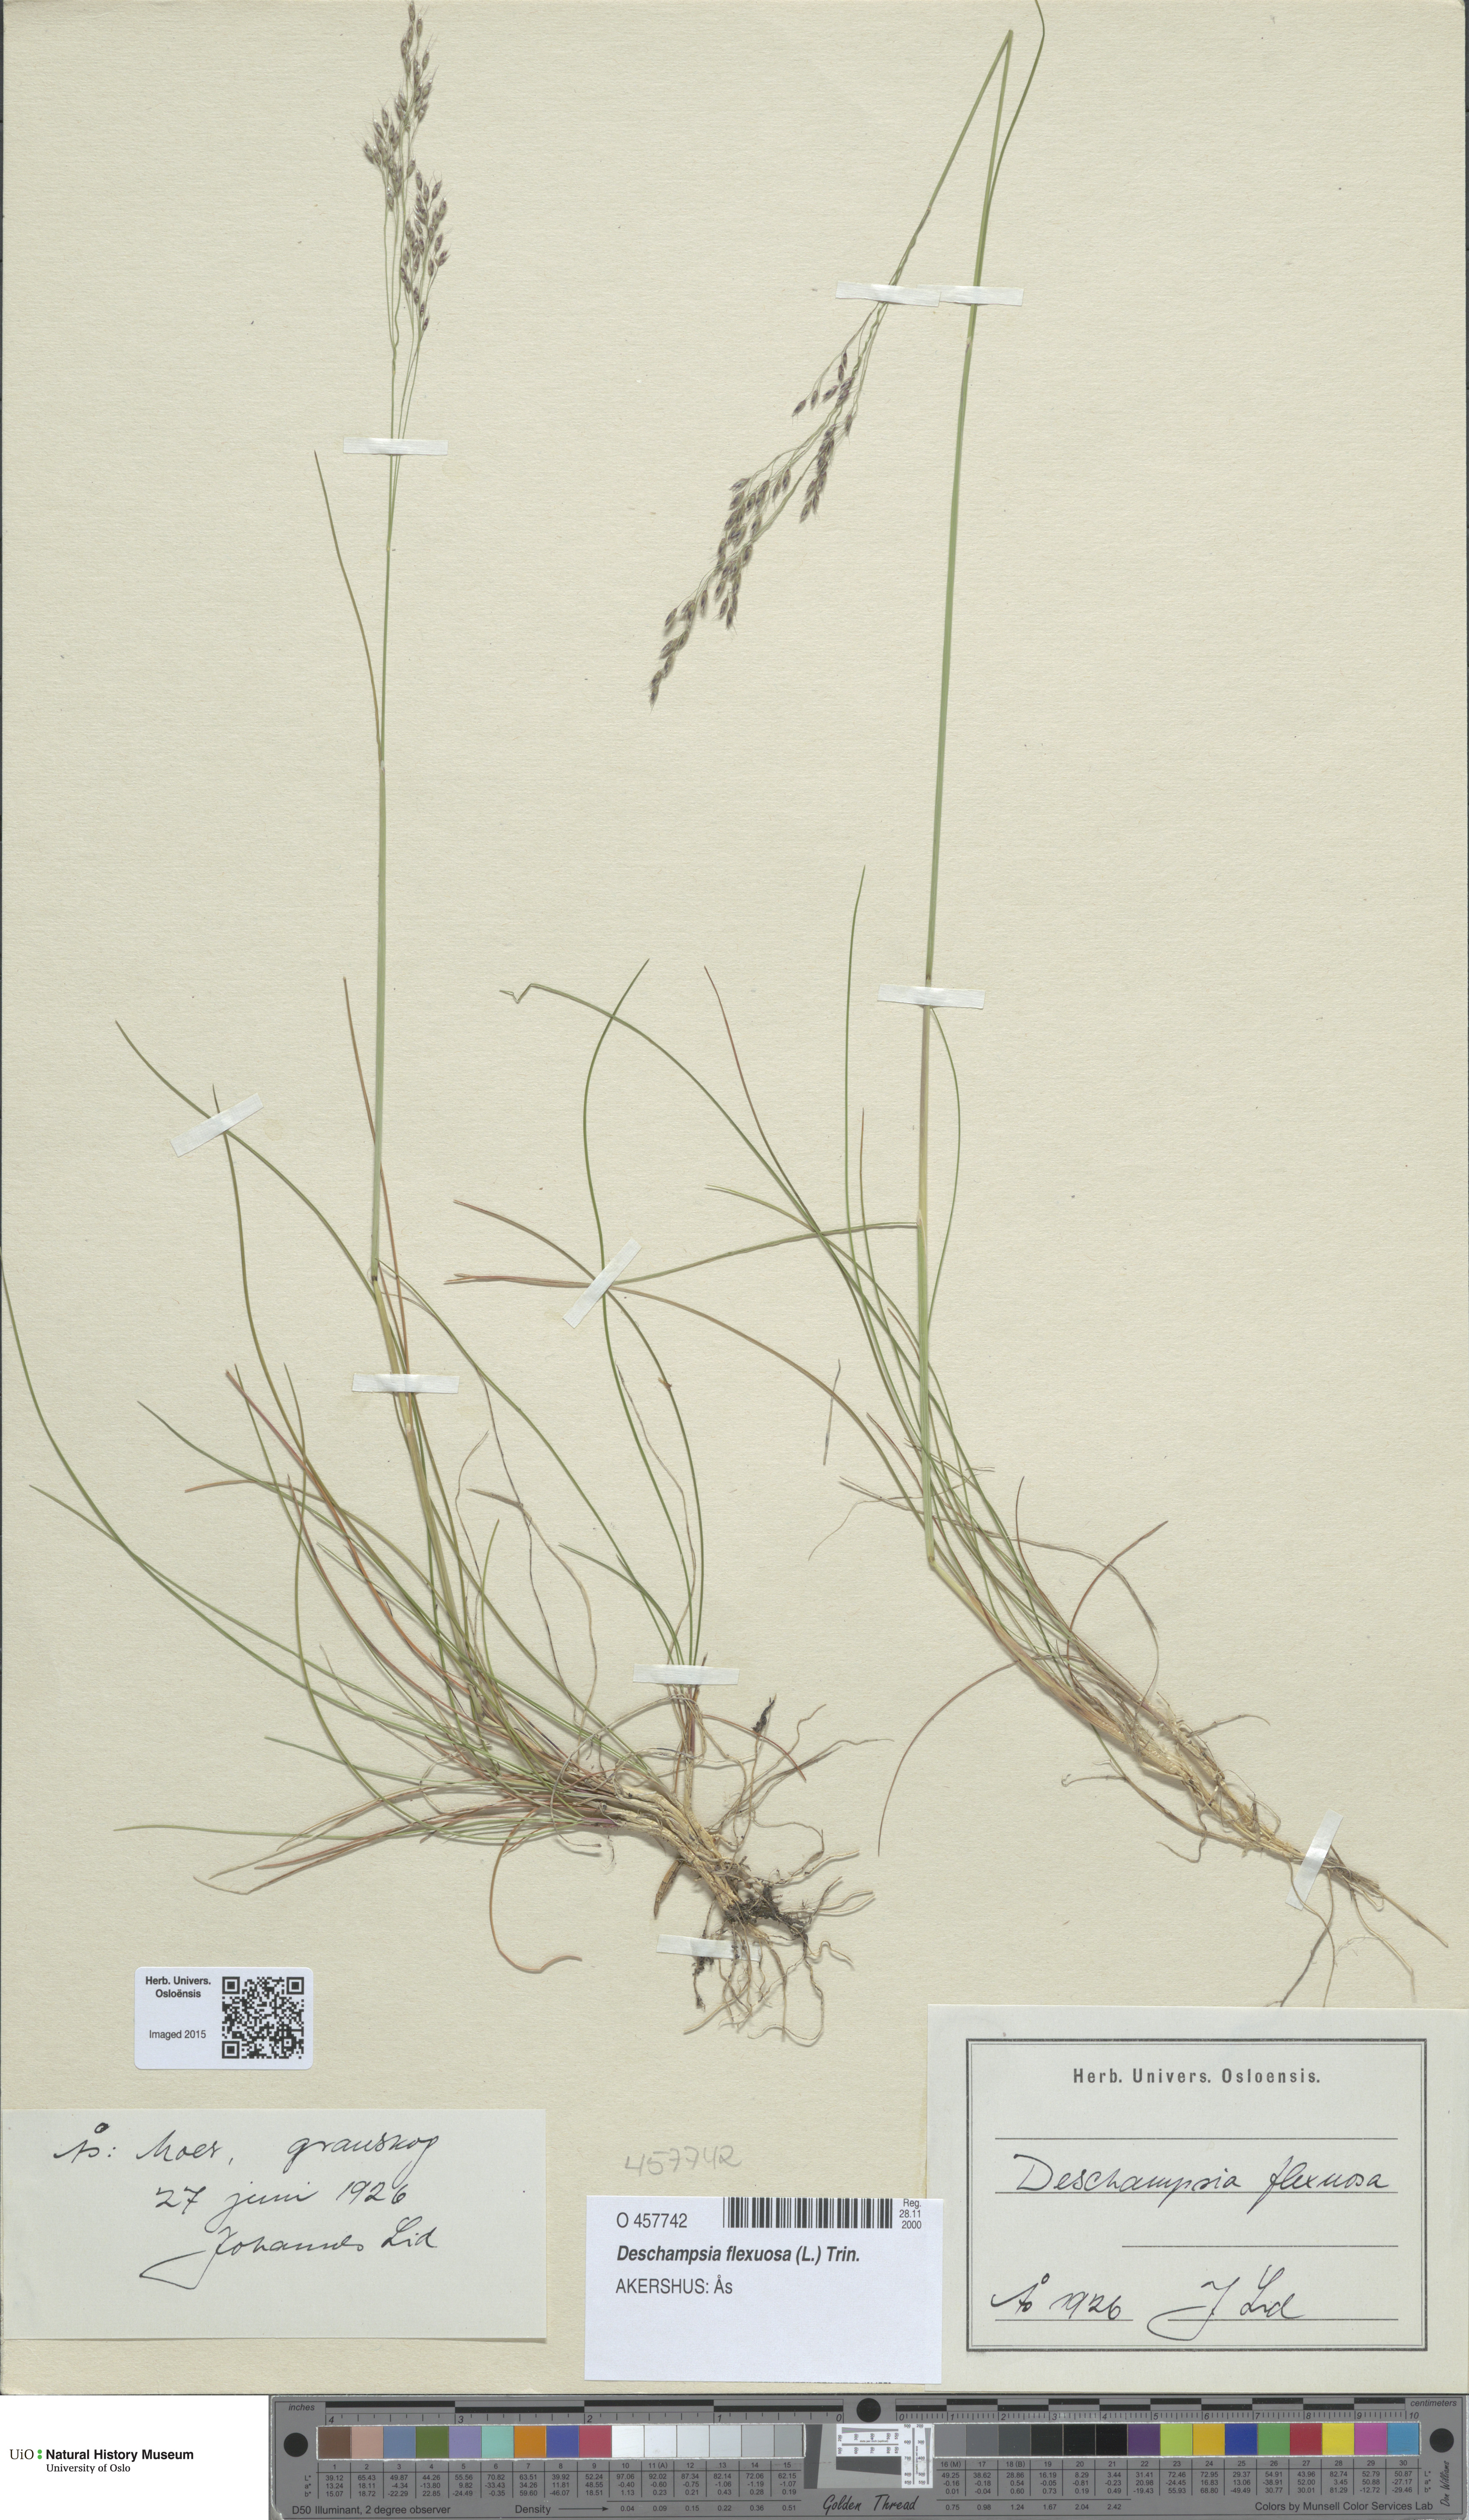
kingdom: Plantae
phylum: Tracheophyta
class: Liliopsida
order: Poales
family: Poaceae
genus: Avenella
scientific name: Avenella flexuosa
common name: Wavy hairgrass
